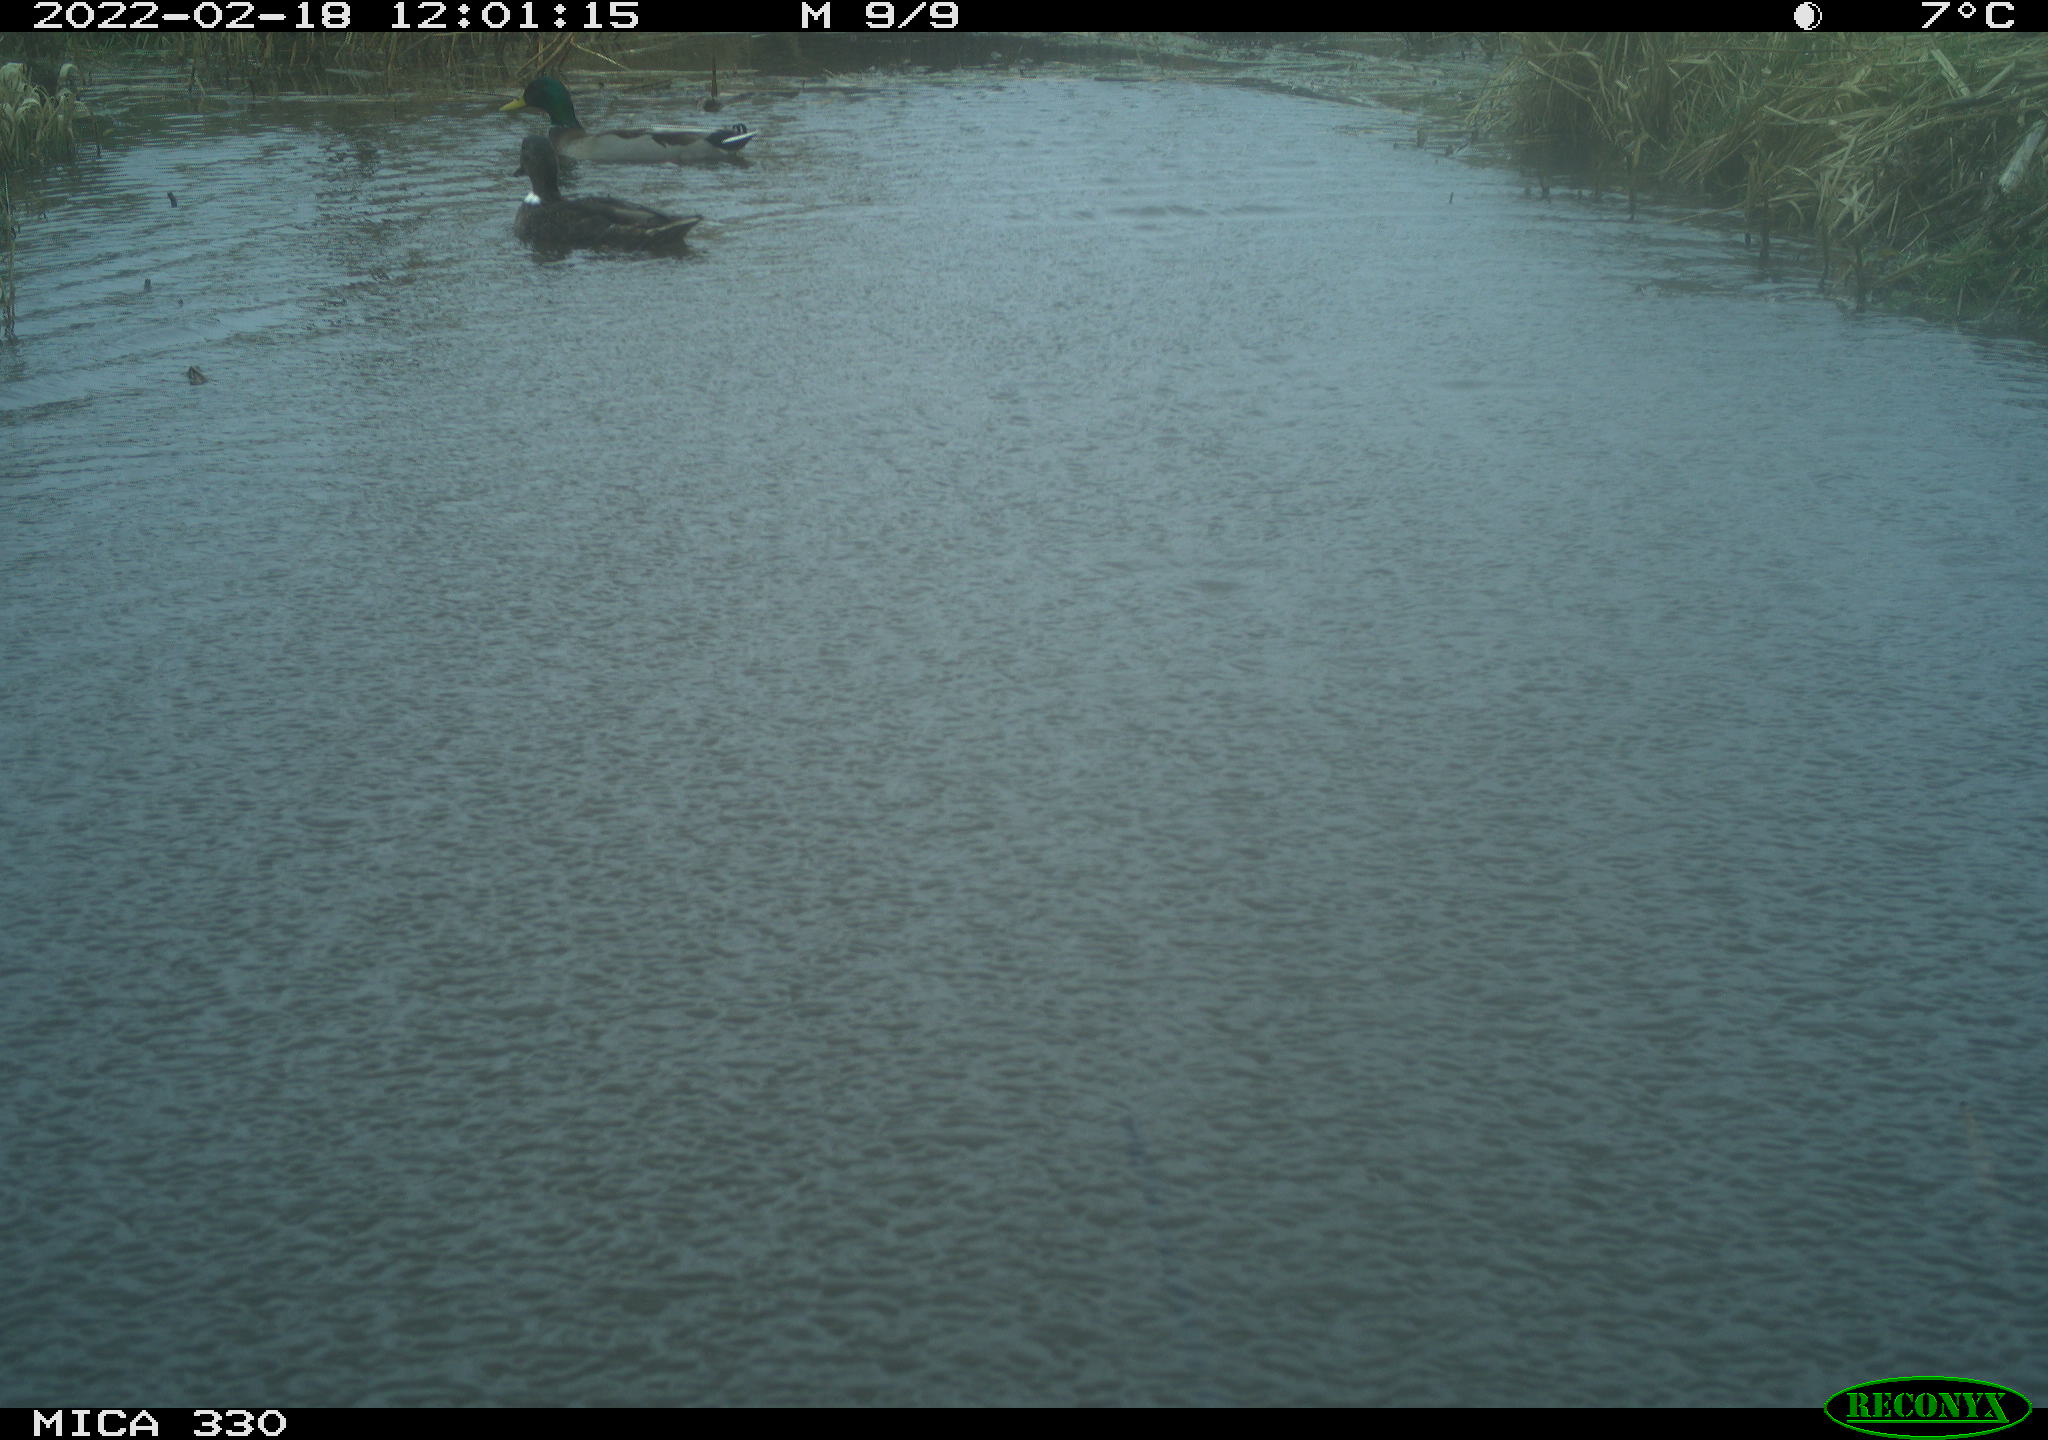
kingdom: Animalia
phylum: Chordata
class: Aves
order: Anseriformes
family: Anatidae
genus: Anas
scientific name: Anas platyrhynchos
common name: Mallard
